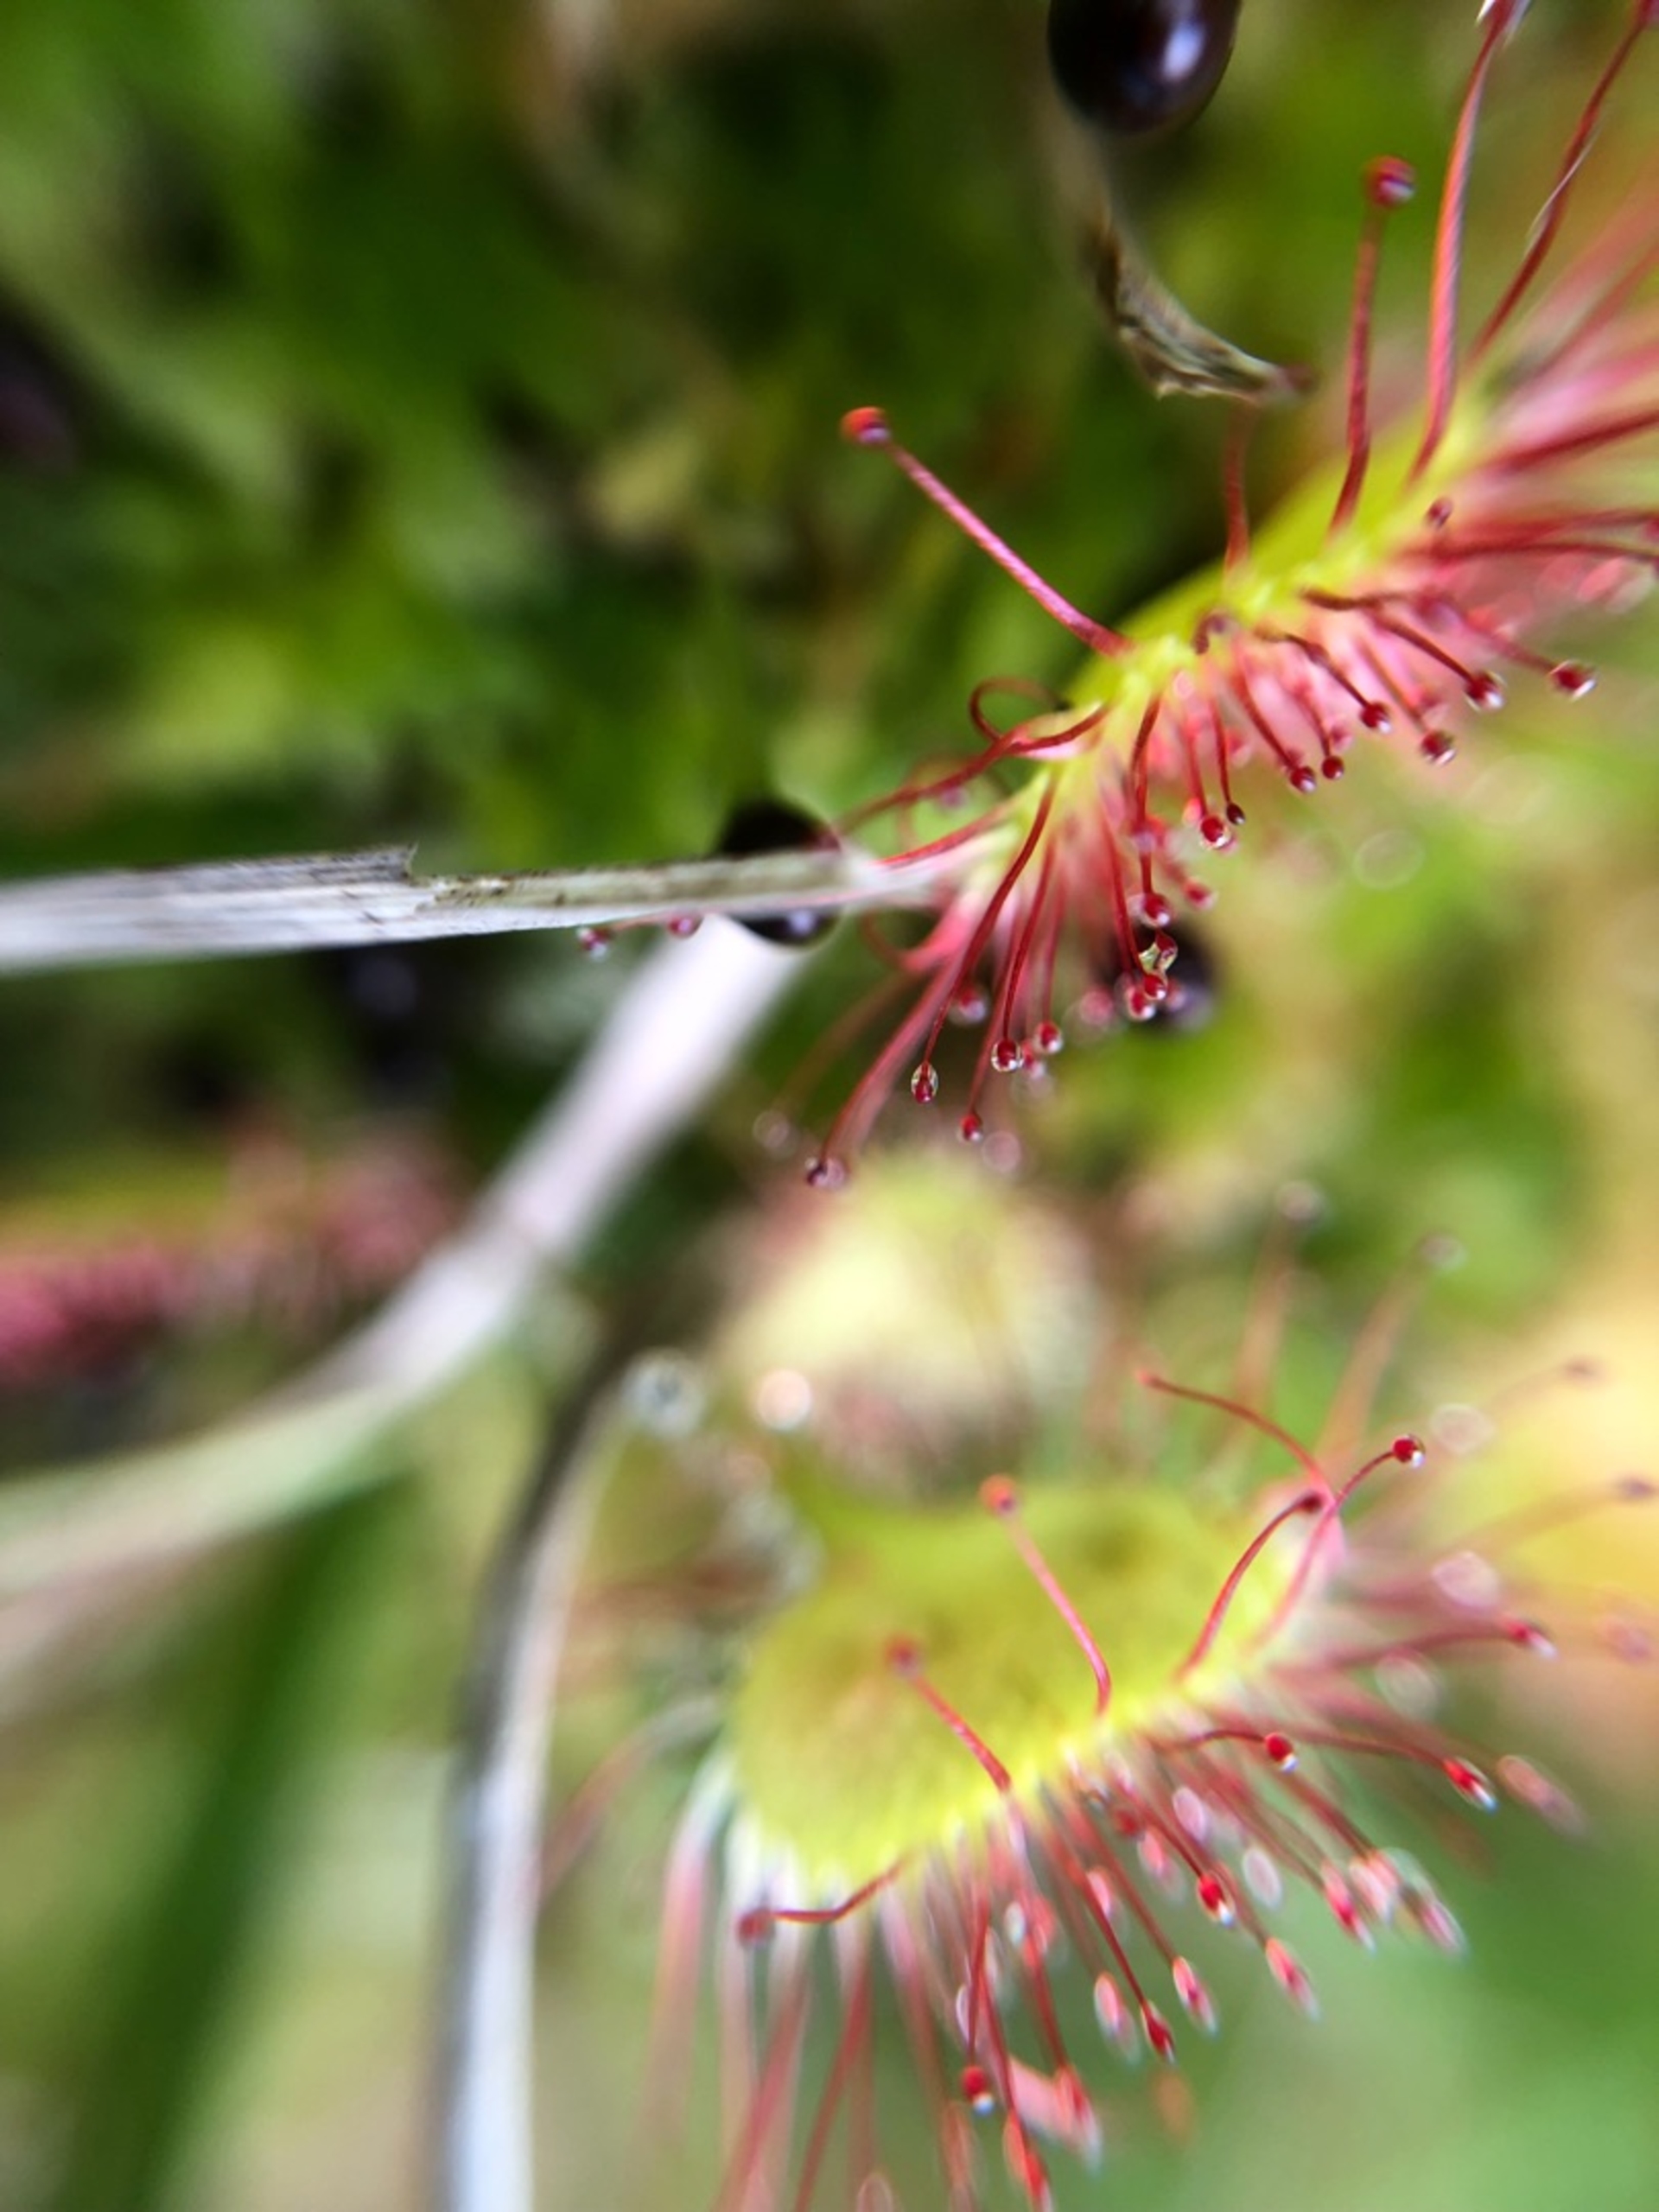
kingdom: Plantae
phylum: Tracheophyta
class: Magnoliopsida
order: Caryophyllales
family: Droseraceae
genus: Drosera
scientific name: Drosera rotundifolia
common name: Rundbladet soldug
